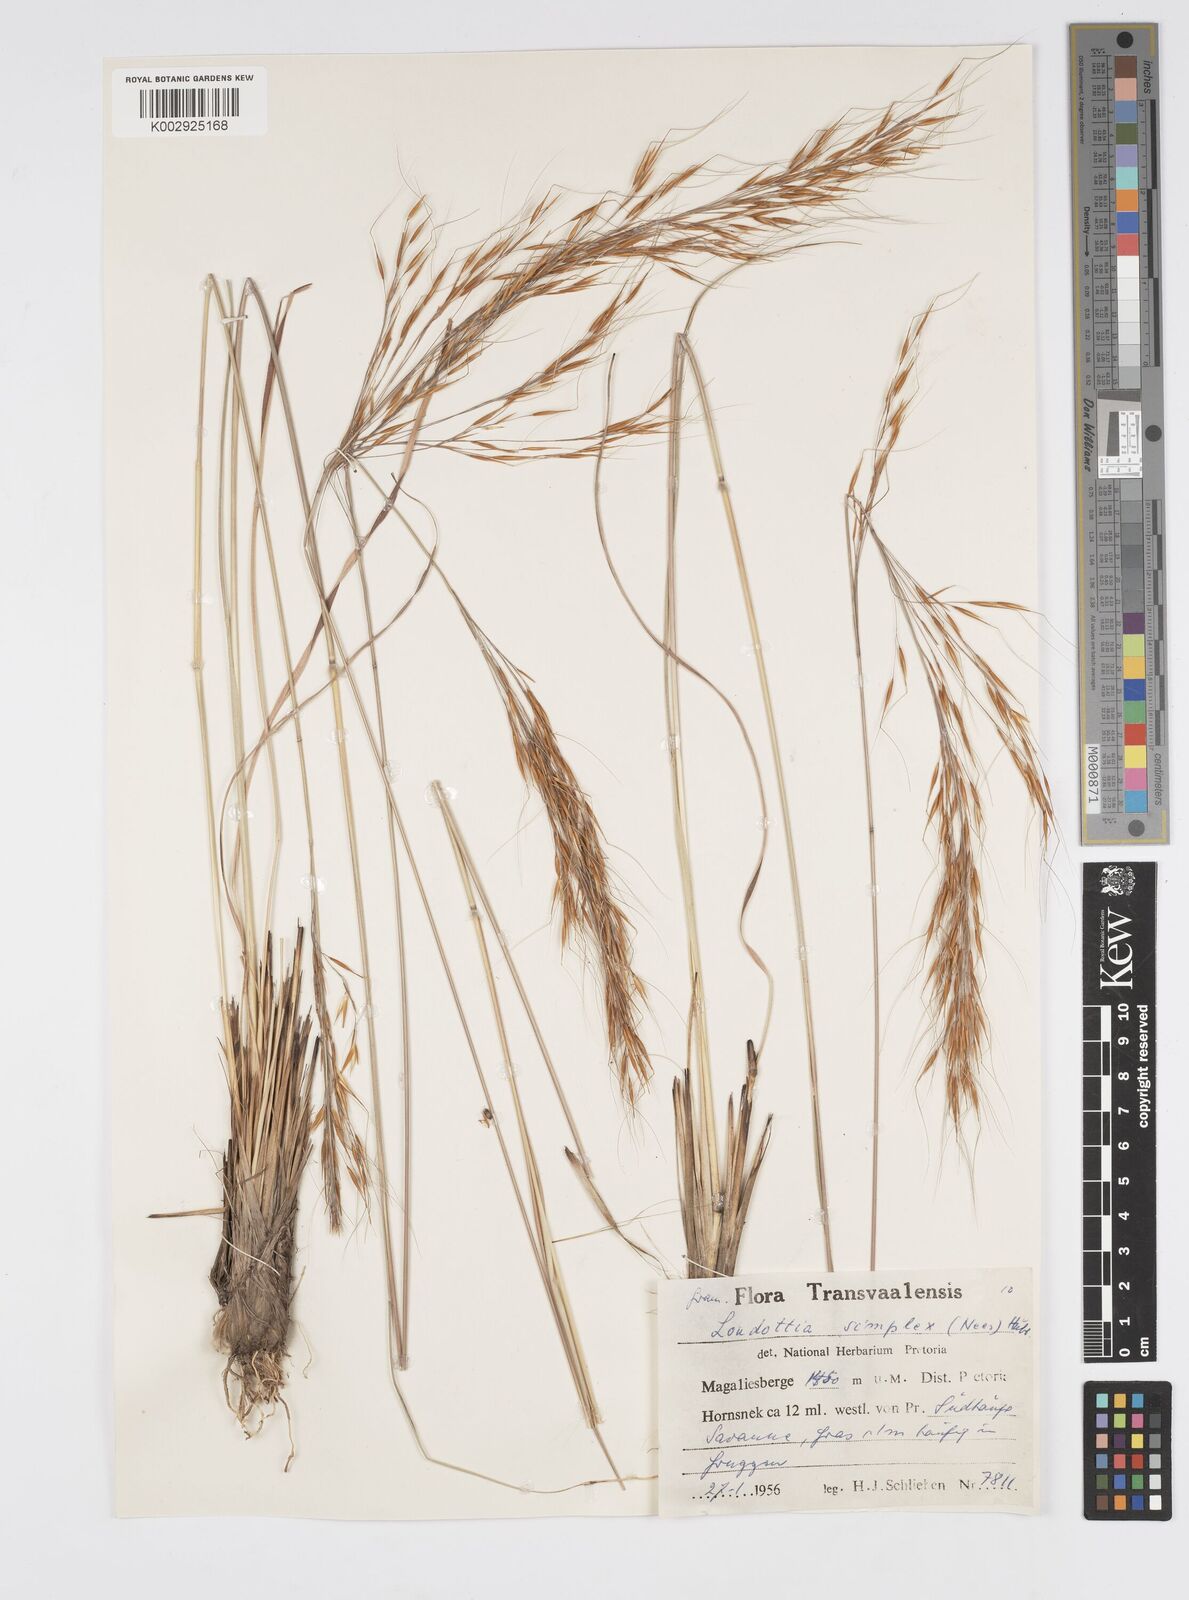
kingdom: Plantae
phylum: Tracheophyta
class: Liliopsida
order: Poales
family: Poaceae
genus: Loudetia
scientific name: Loudetia simplex
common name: Common russet grass
